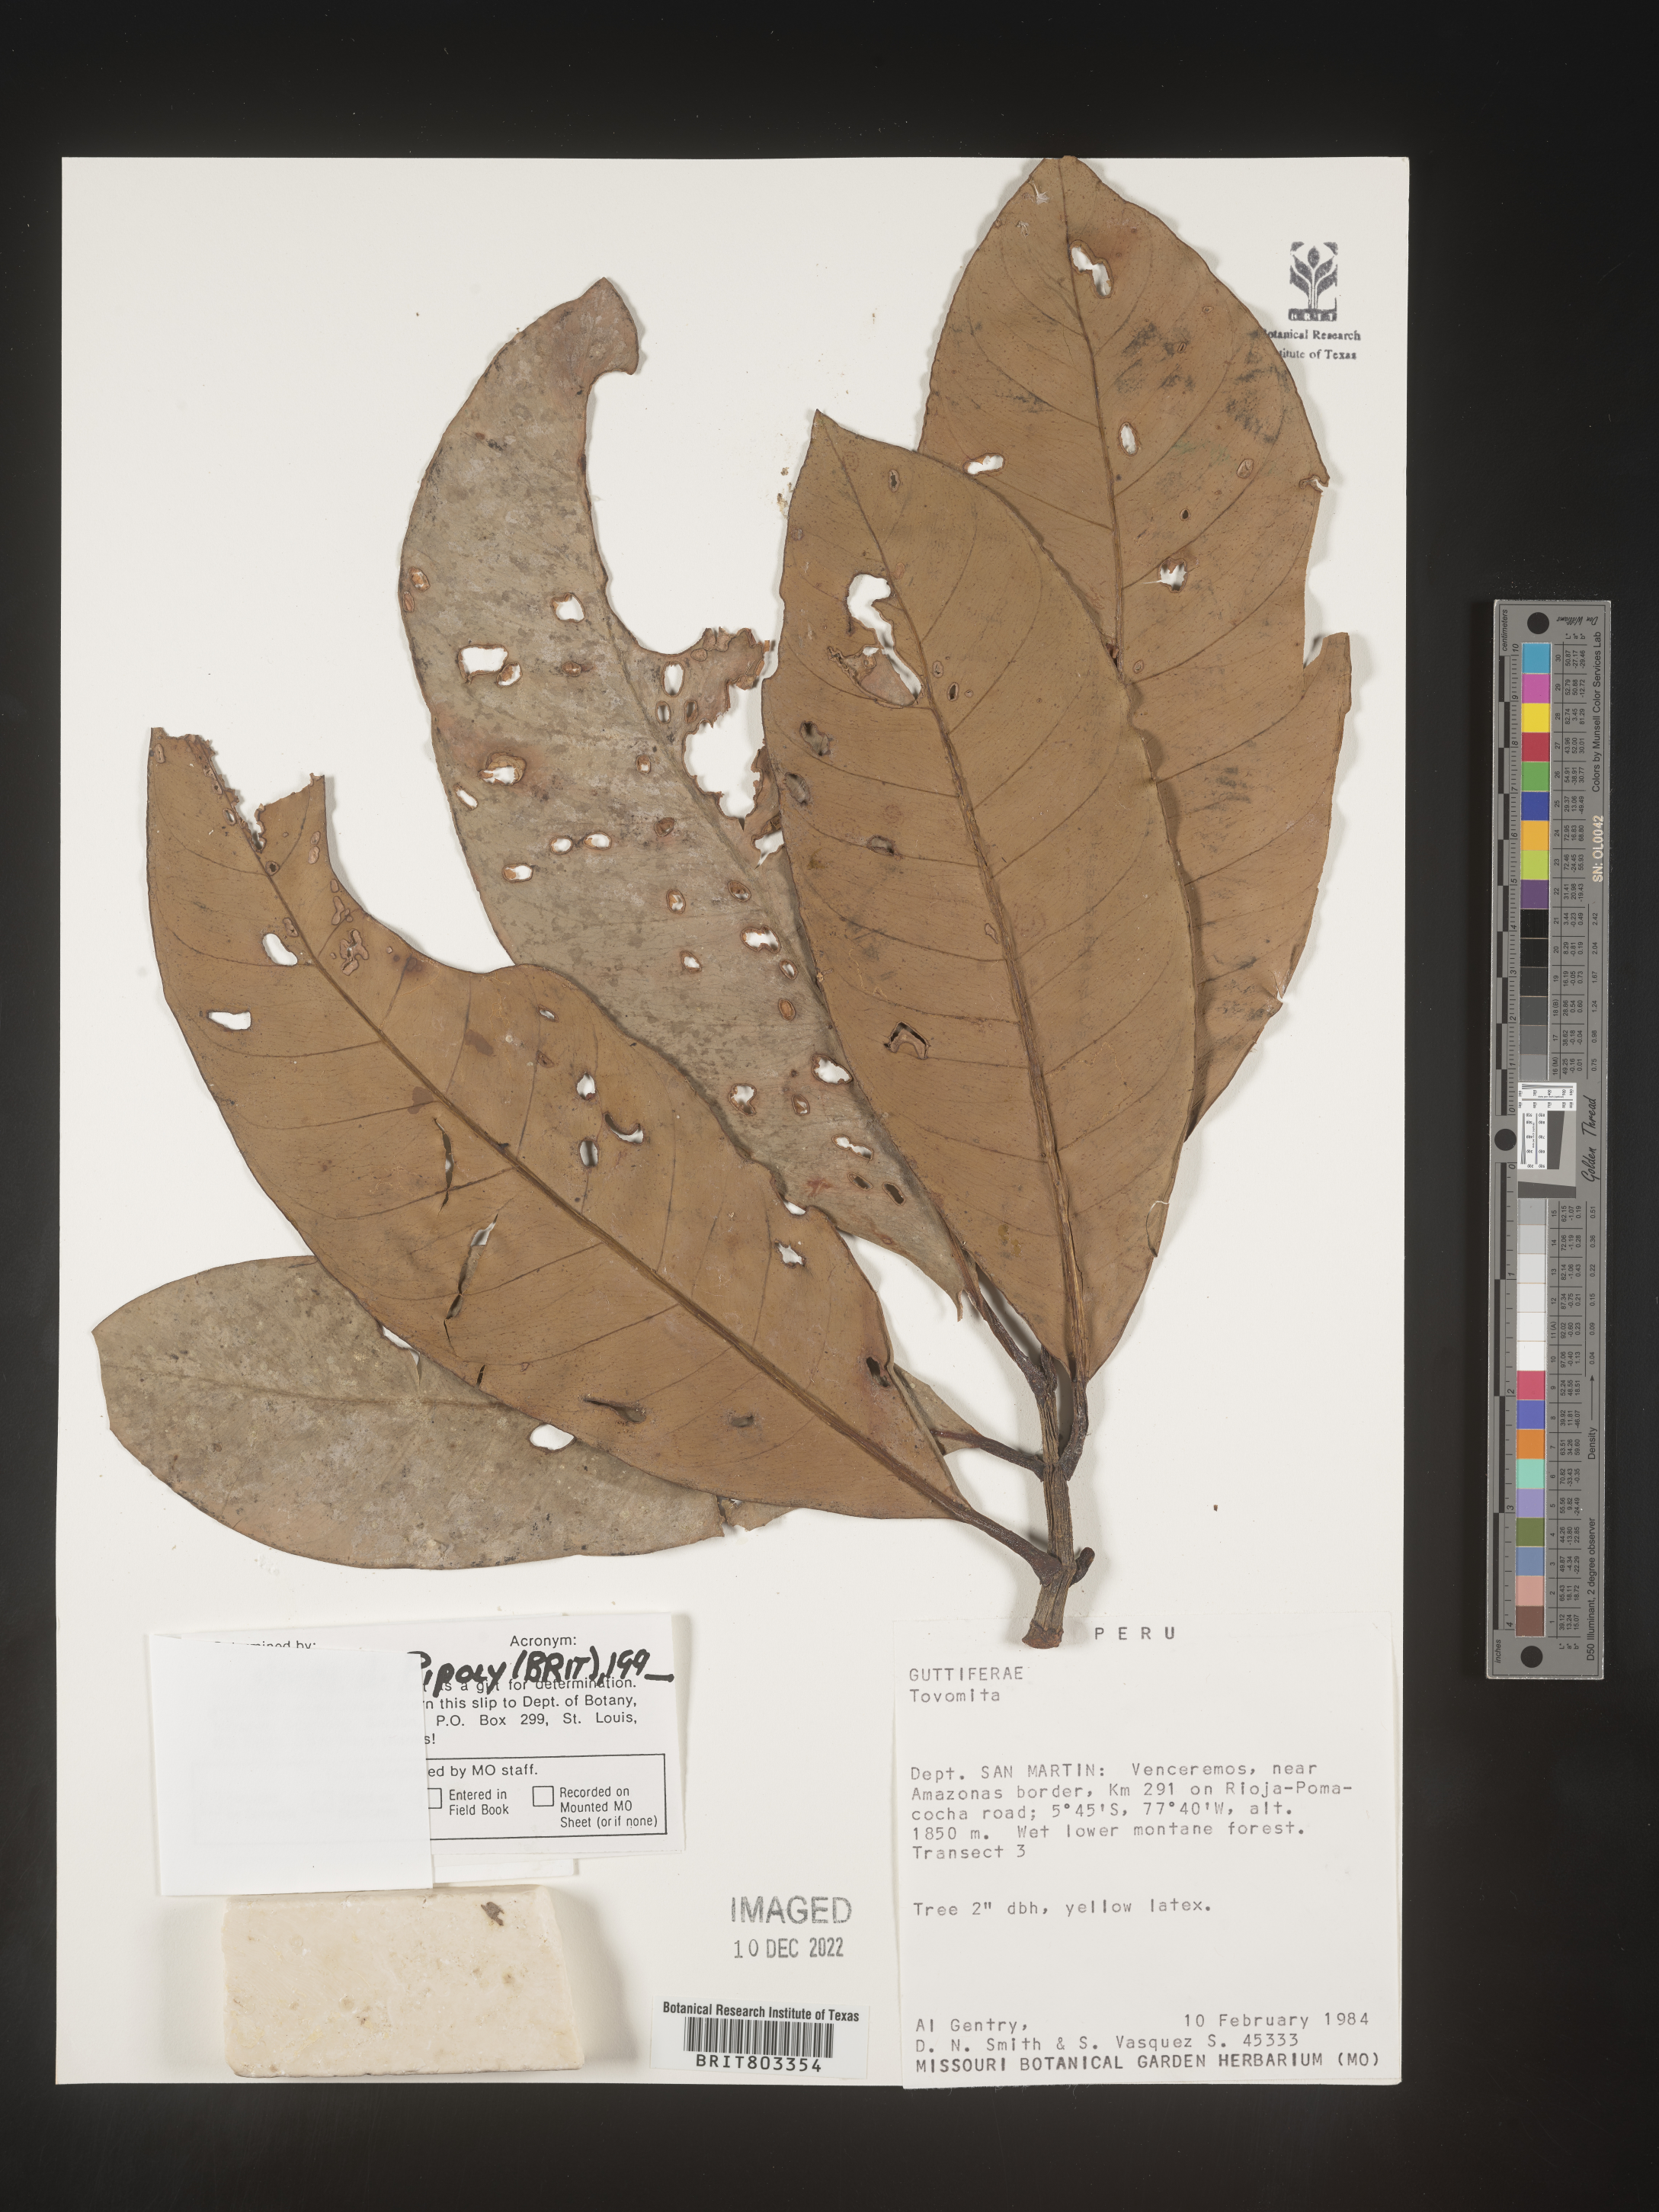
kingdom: Plantae
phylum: Tracheophyta
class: Magnoliopsida
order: Malpighiales
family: Clusiaceae
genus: Tovomita
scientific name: Tovomita
